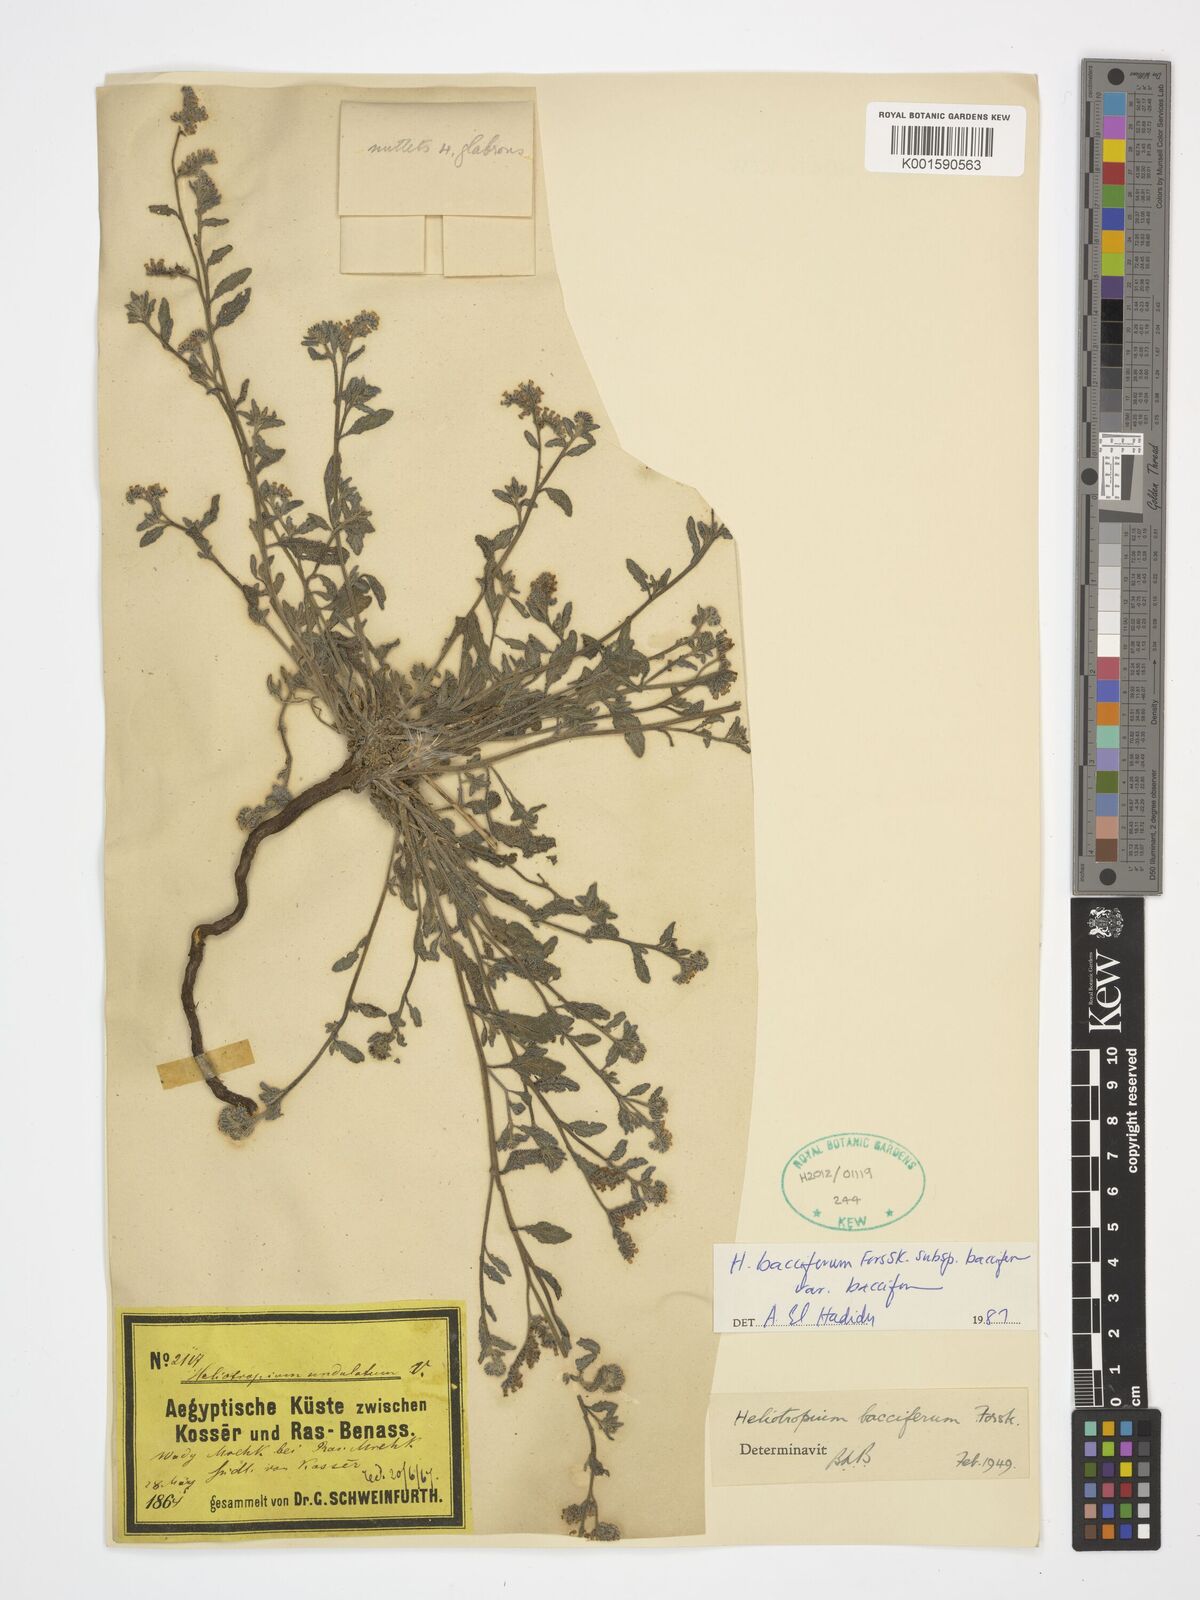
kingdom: Plantae
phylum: Tracheophyta
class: Magnoliopsida
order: Boraginales
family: Heliotropiaceae
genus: Heliotropium
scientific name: Heliotropium bacciferum
